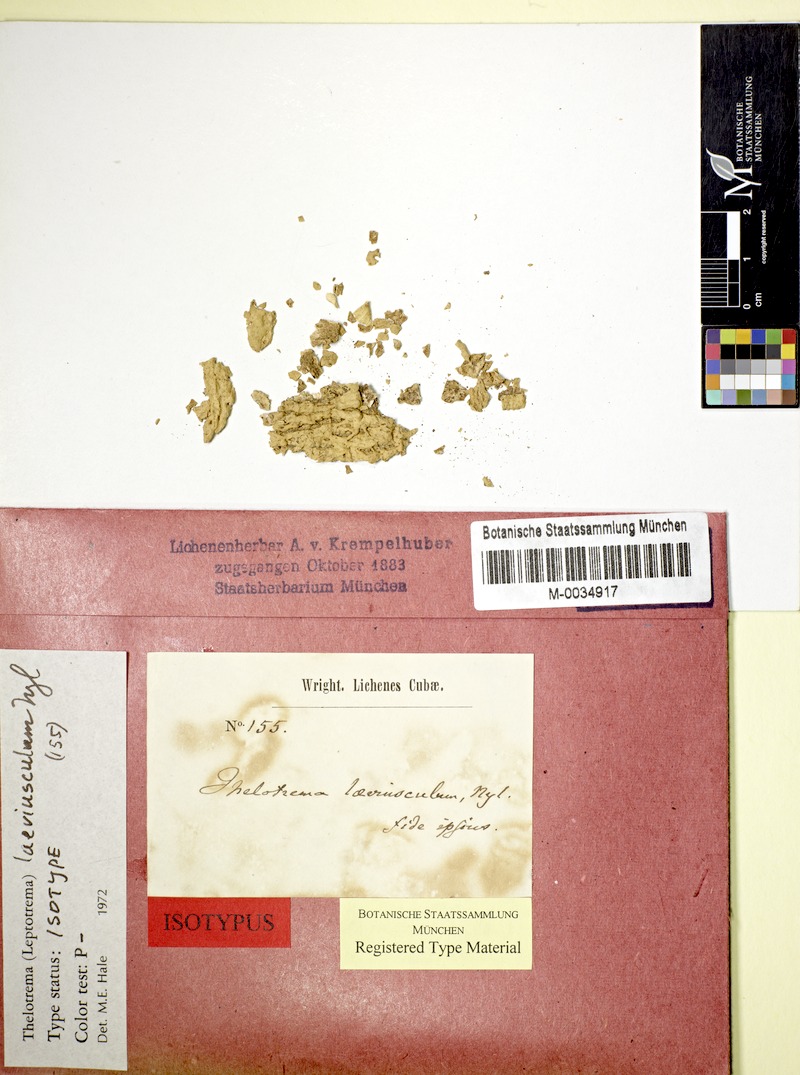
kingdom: Fungi
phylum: Ascomycota
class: Lecanoromycetes
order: Ostropales
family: Graphidaceae
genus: Ocellularia
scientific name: Ocellularia laeviuscula
